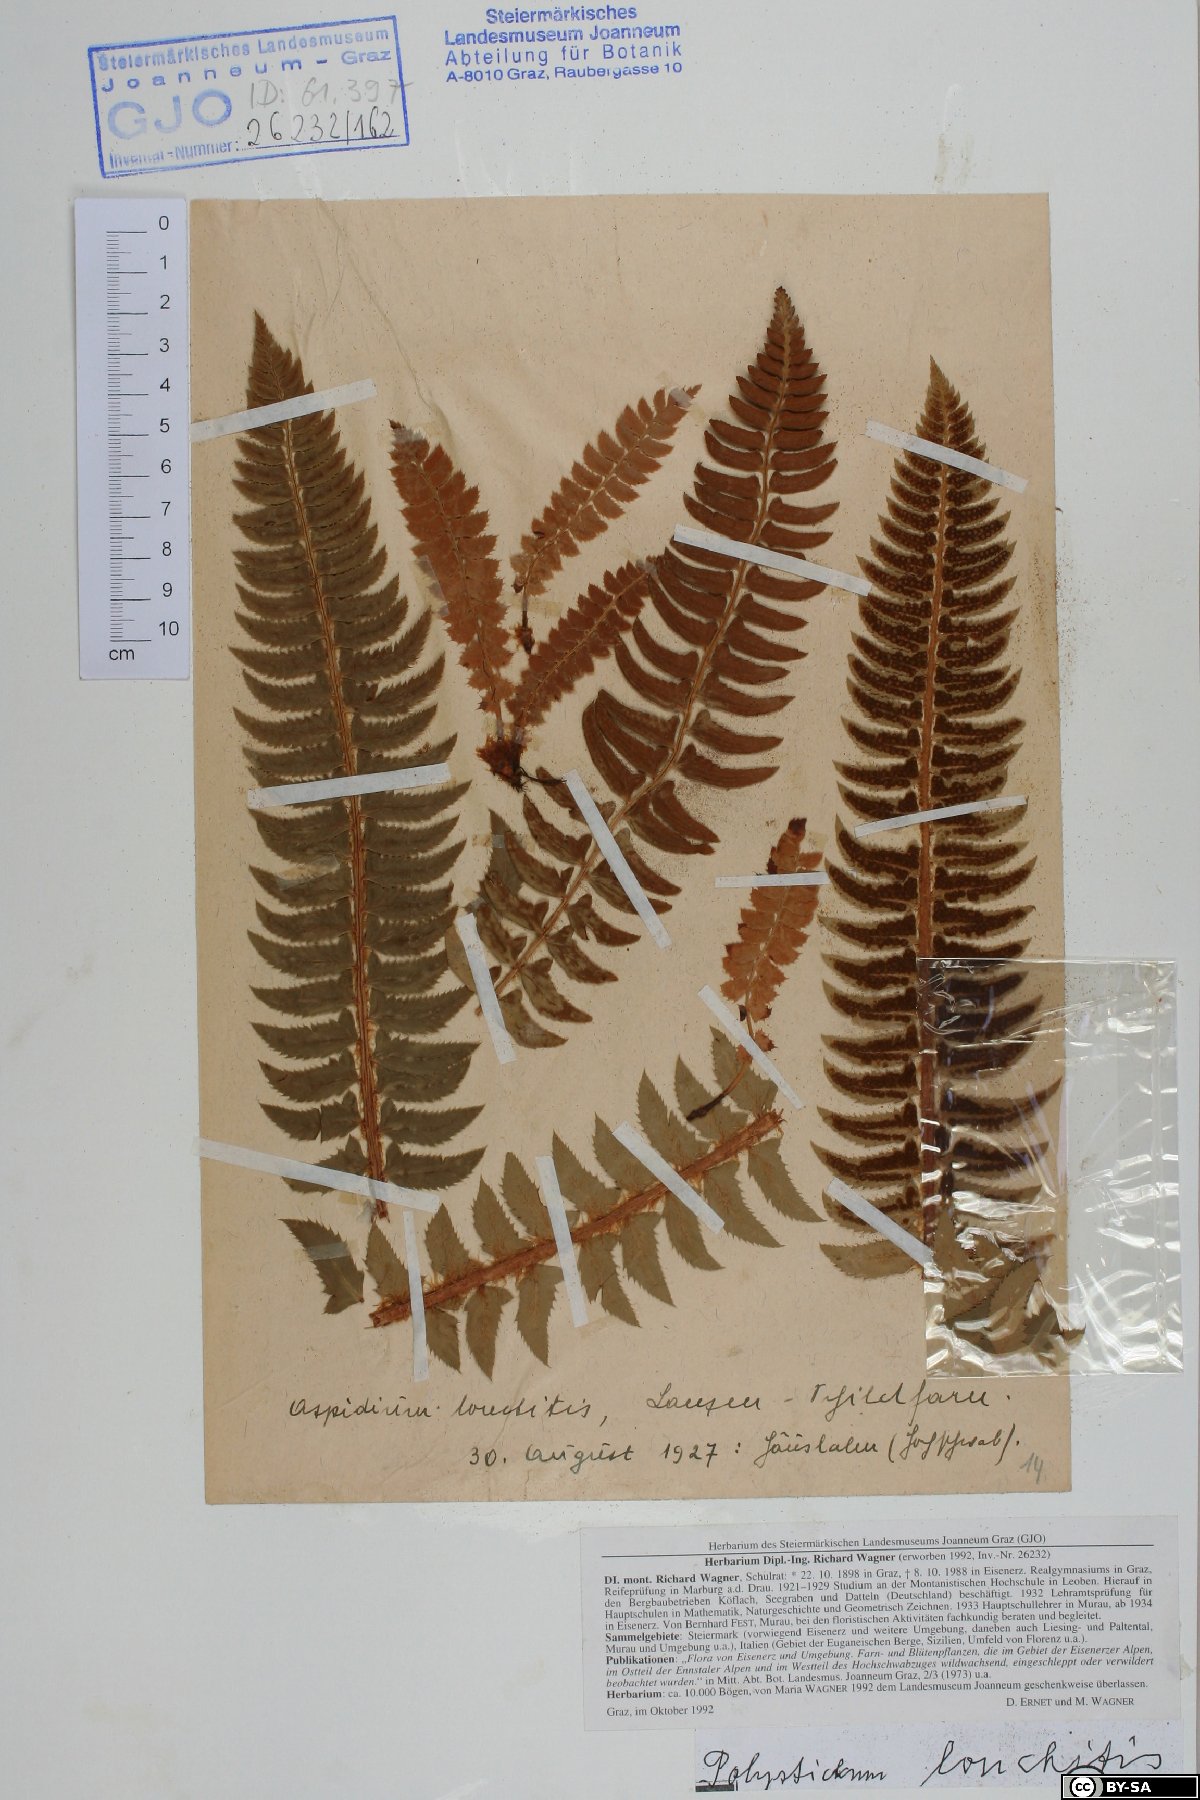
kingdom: Plantae
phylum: Tracheophyta
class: Polypodiopsida
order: Polypodiales
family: Dryopteridaceae
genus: Polystichum
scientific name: Polystichum lonchitis
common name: Holly fern
